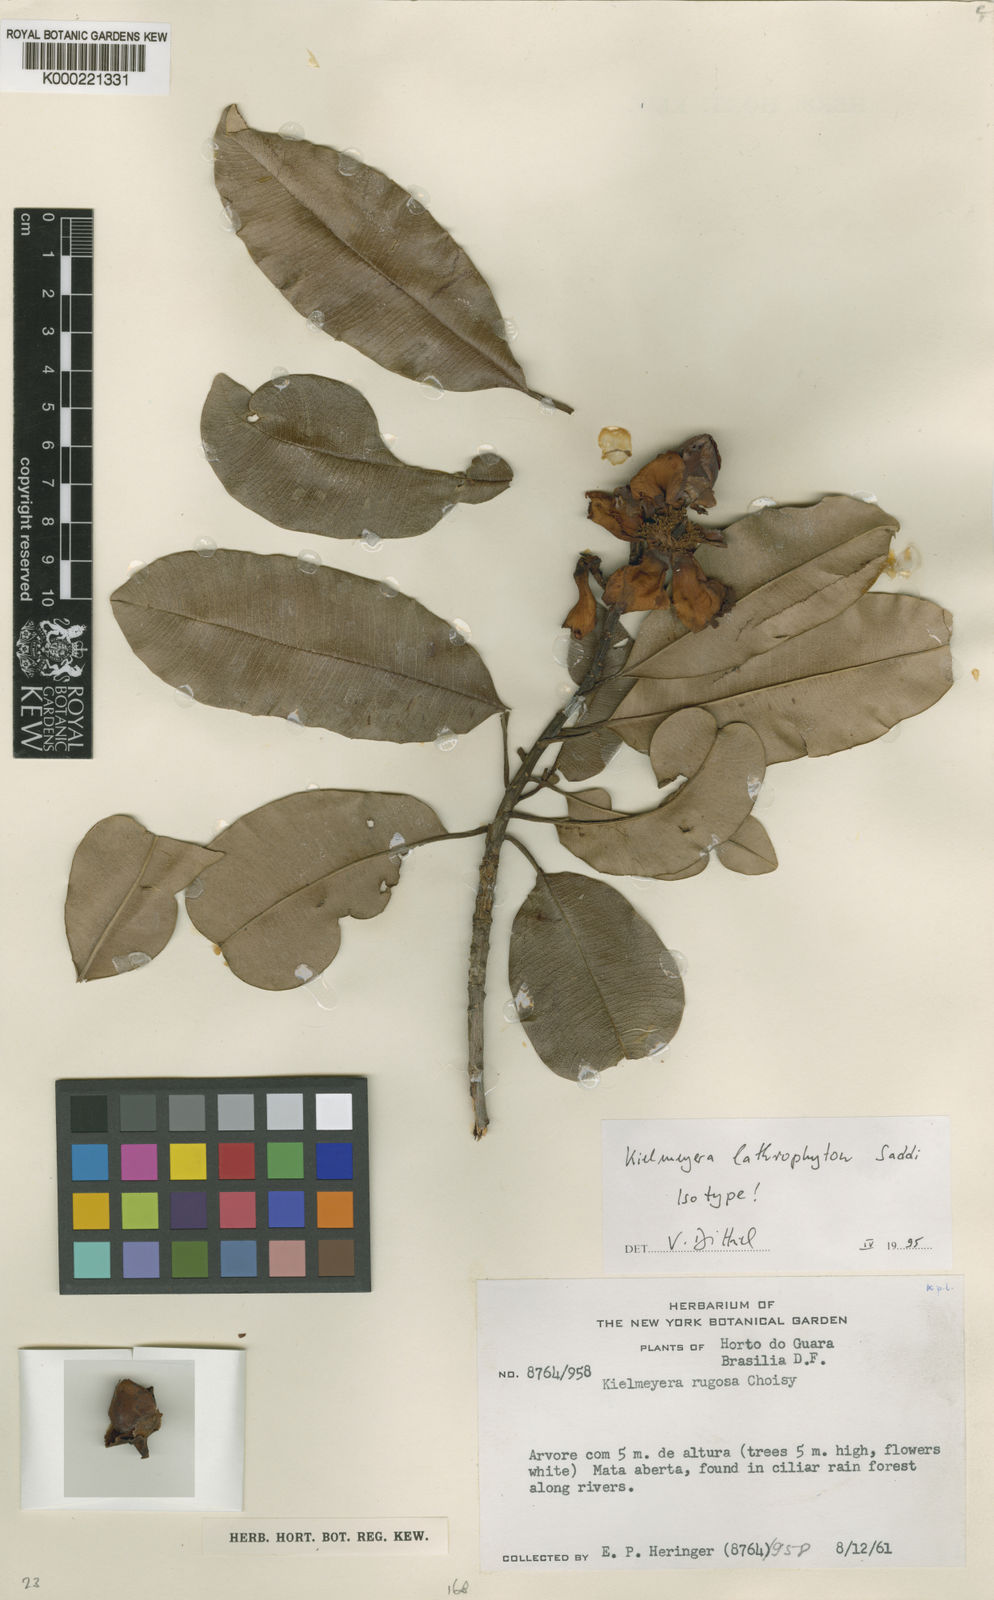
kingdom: Plantae
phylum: Tracheophyta
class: Magnoliopsida
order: Malpighiales
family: Calophyllaceae
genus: Kielmeyera
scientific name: Kielmeyera lathrophyton
